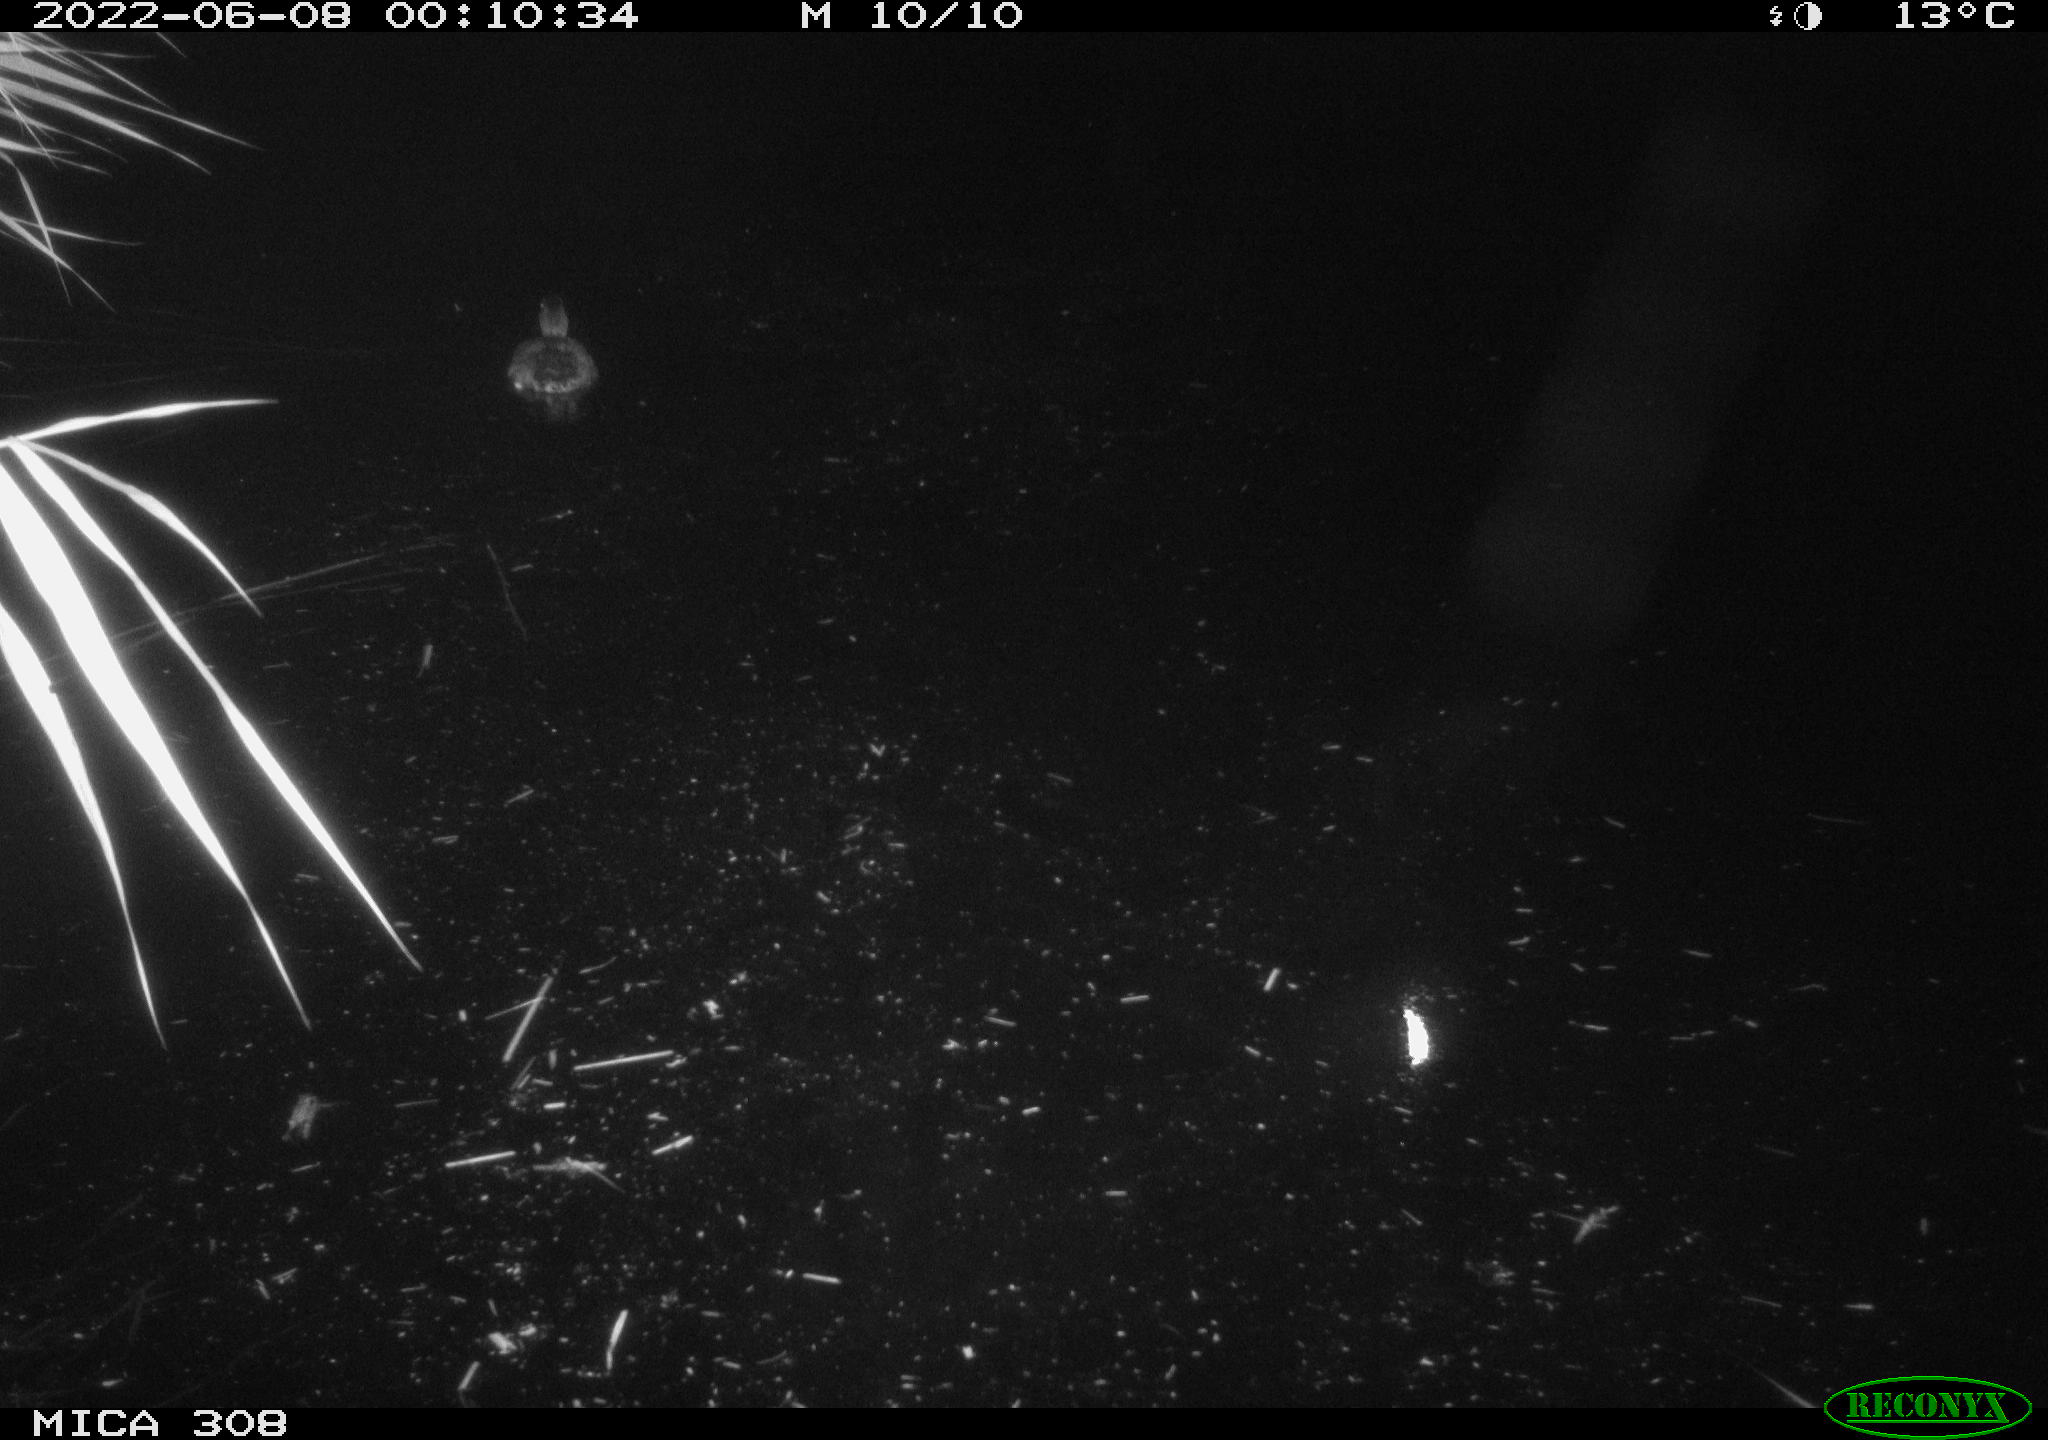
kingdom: Animalia
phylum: Chordata
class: Aves
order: Anseriformes
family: Anatidae
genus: Anas
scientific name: Anas platyrhynchos
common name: Mallard
